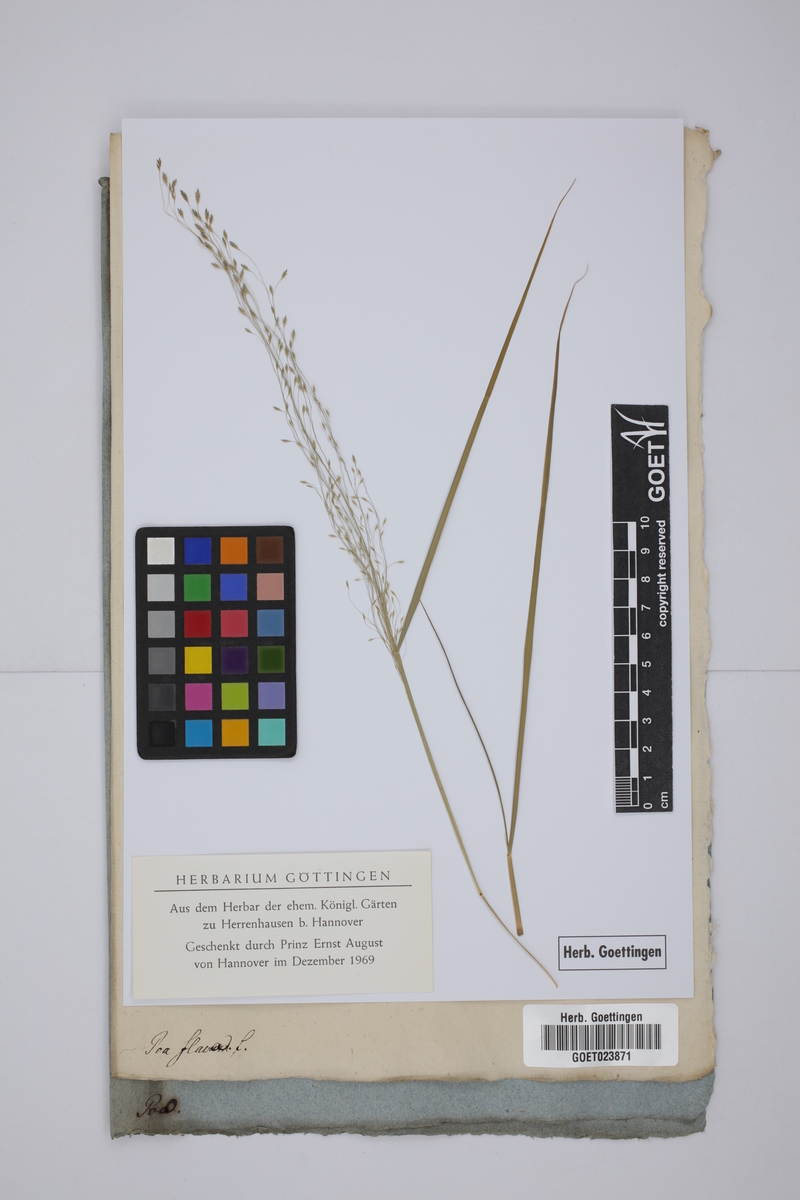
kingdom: Plantae
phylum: Tracheophyta
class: Liliopsida
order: Poales
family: Poaceae
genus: Tridens
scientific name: Tridens flavus
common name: Purpletop
